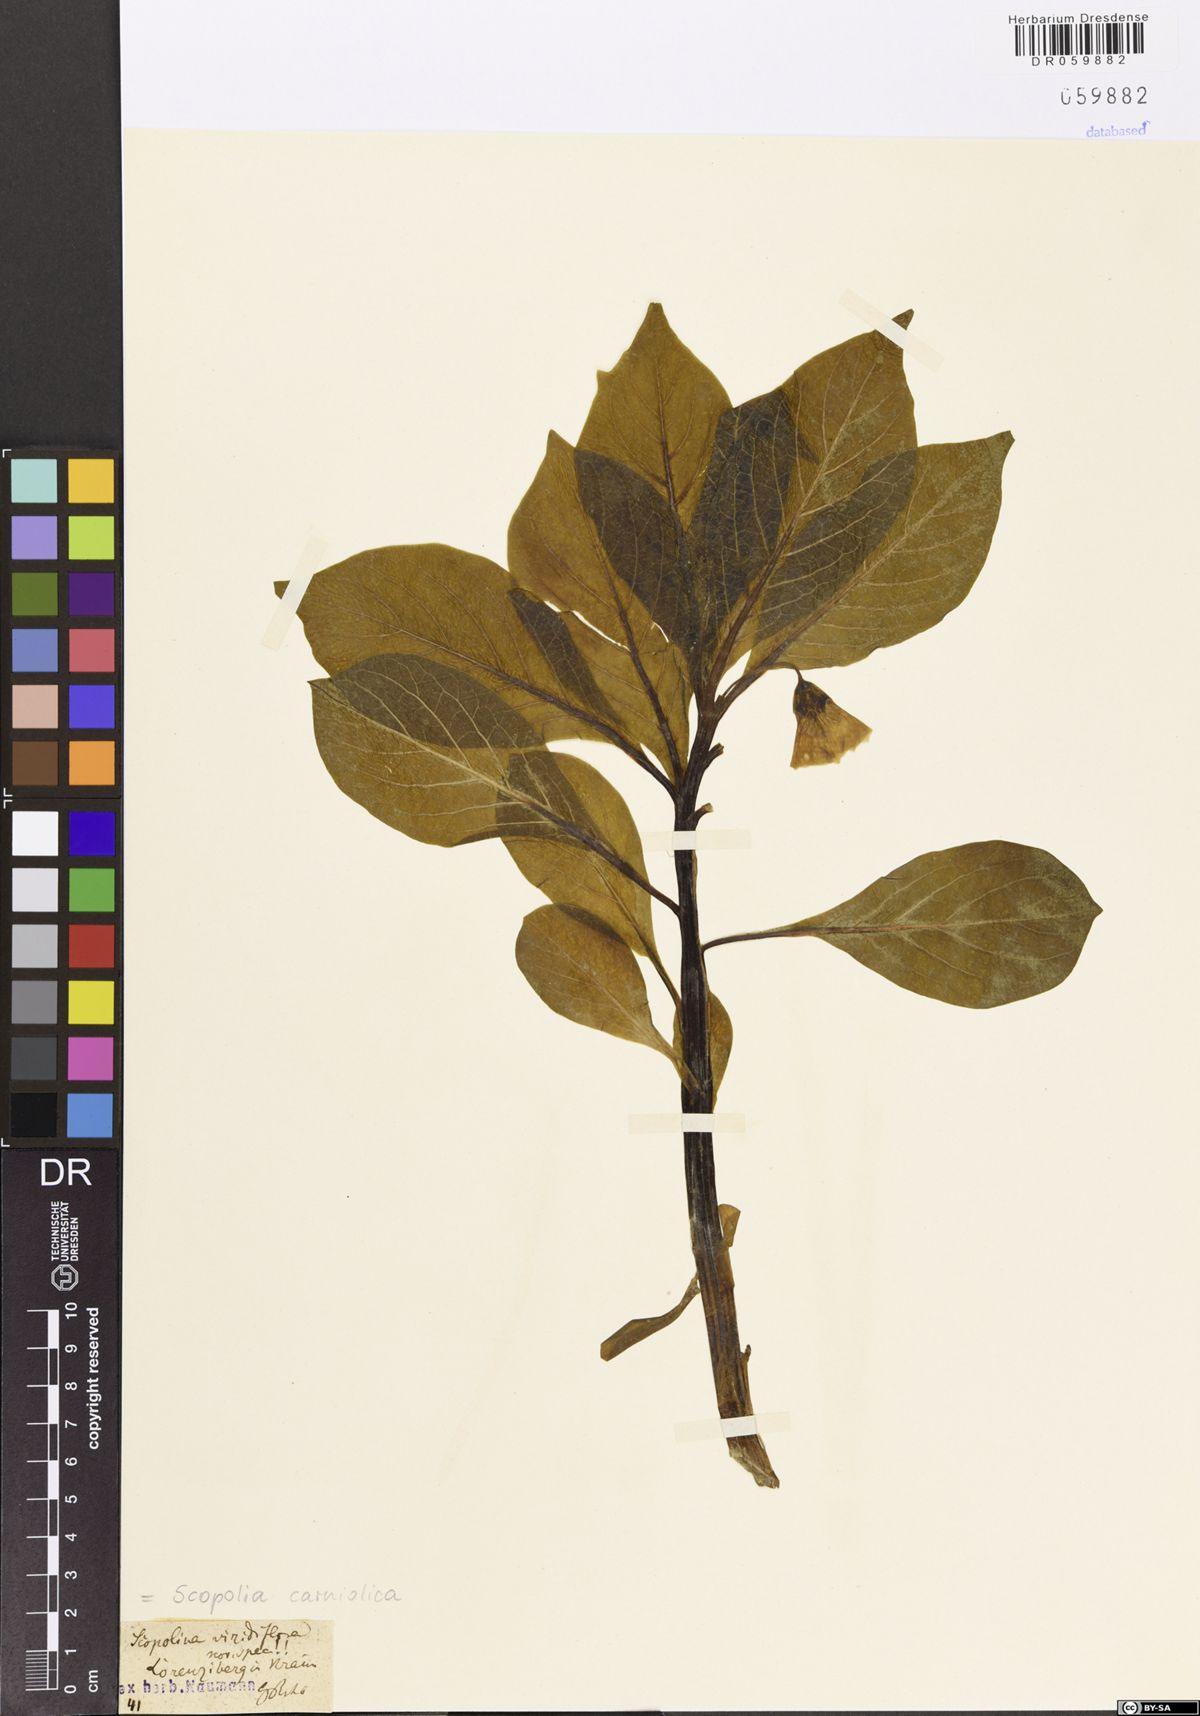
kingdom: Plantae
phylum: Tracheophyta
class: Magnoliopsida
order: Solanales
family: Solanaceae
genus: Scopolia
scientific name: Scopolia carniolica
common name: Scopolia
